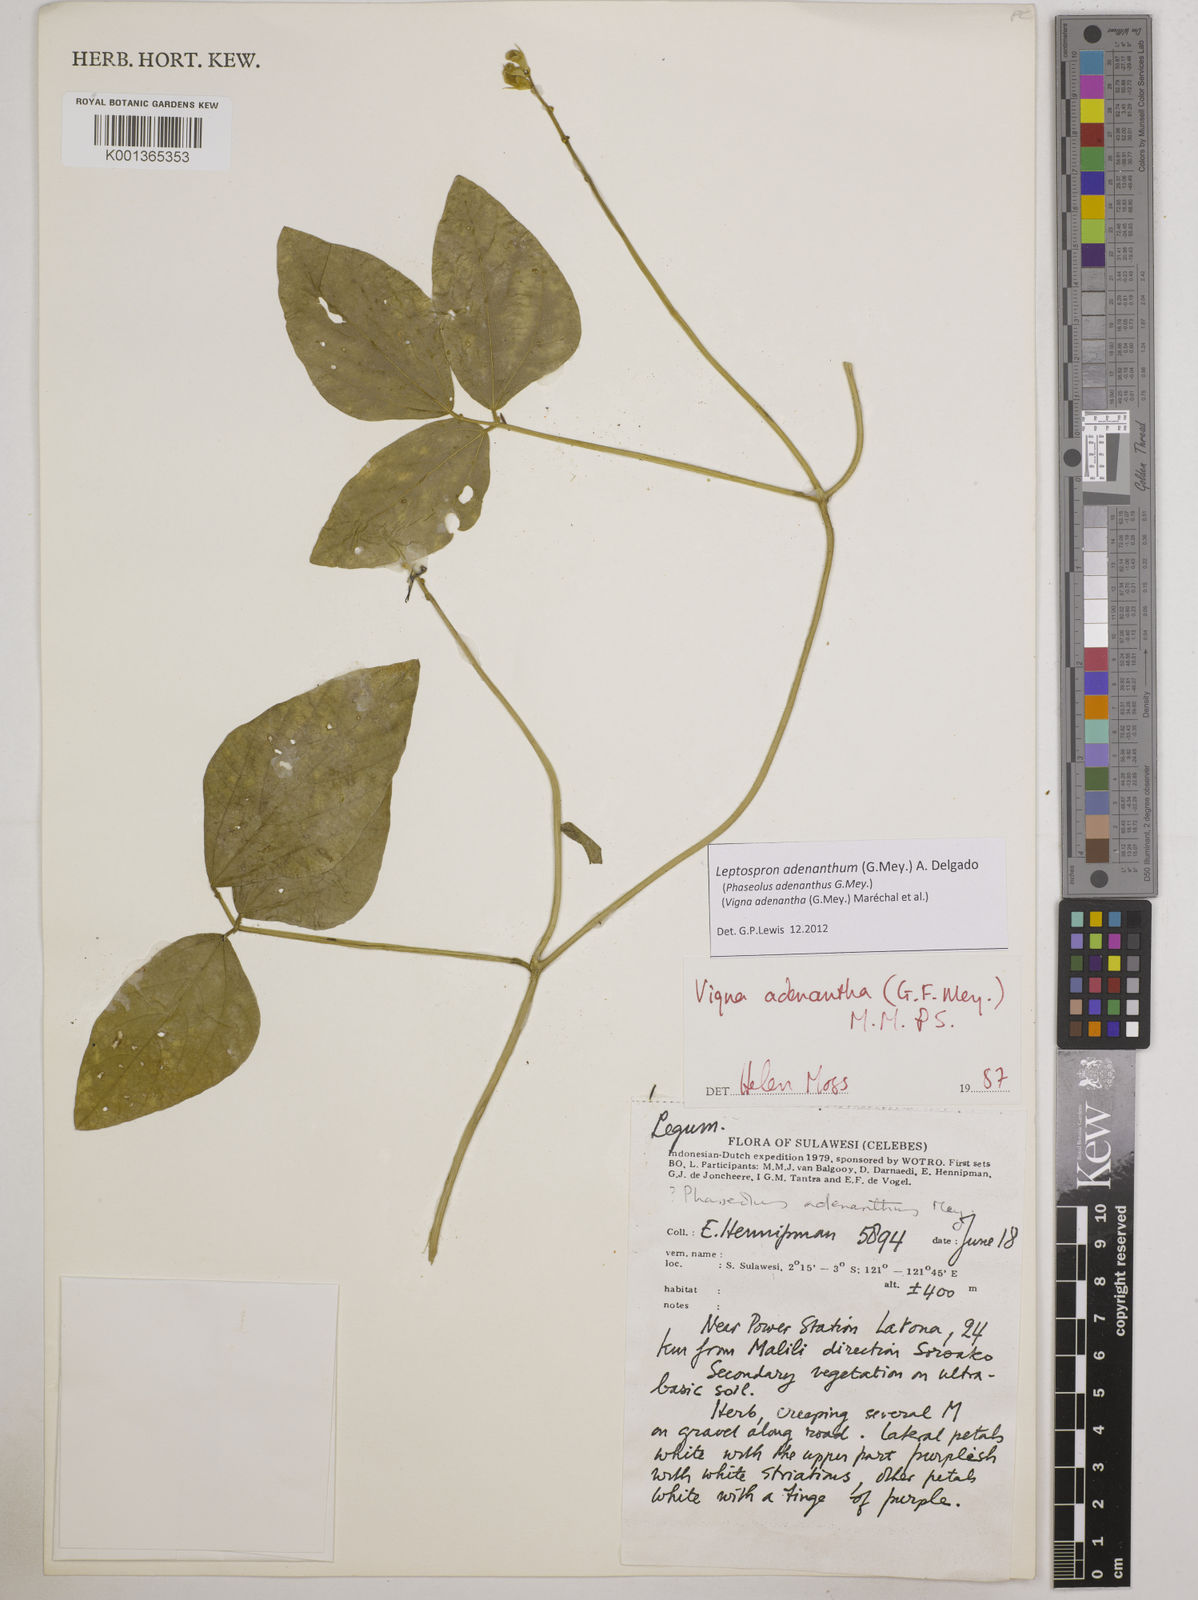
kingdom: Plantae
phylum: Tracheophyta
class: Magnoliopsida
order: Fabales
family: Fabaceae
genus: Leptospron
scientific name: Leptospron adenanthum
